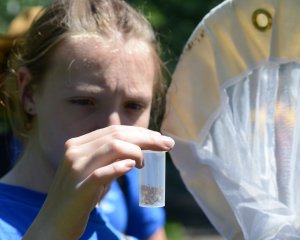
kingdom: Animalia
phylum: Arthropoda
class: Insecta
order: Lepidoptera
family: Nymphalidae
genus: Polygonia
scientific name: Polygonia comma
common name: Eastern Comma
